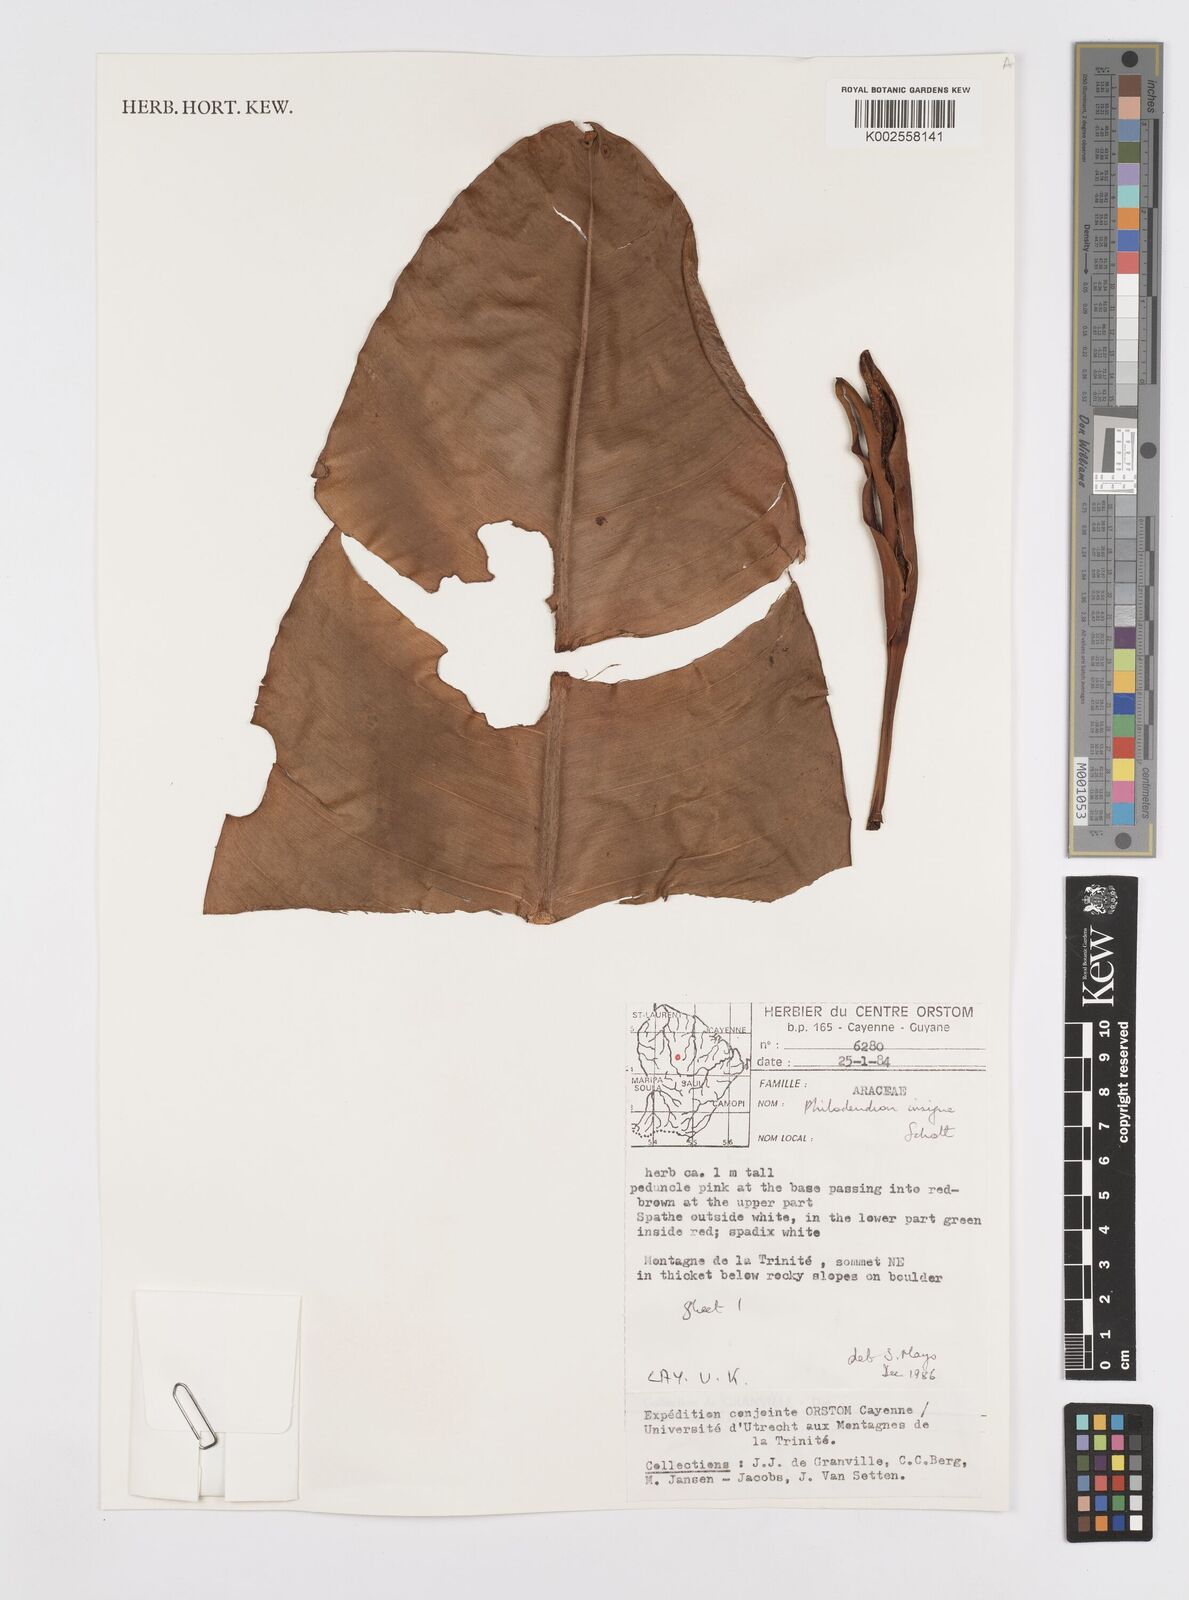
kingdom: Plantae
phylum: Tracheophyta
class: Liliopsida
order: Alismatales
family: Araceae
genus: Philodendron
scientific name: Philodendron insigne
